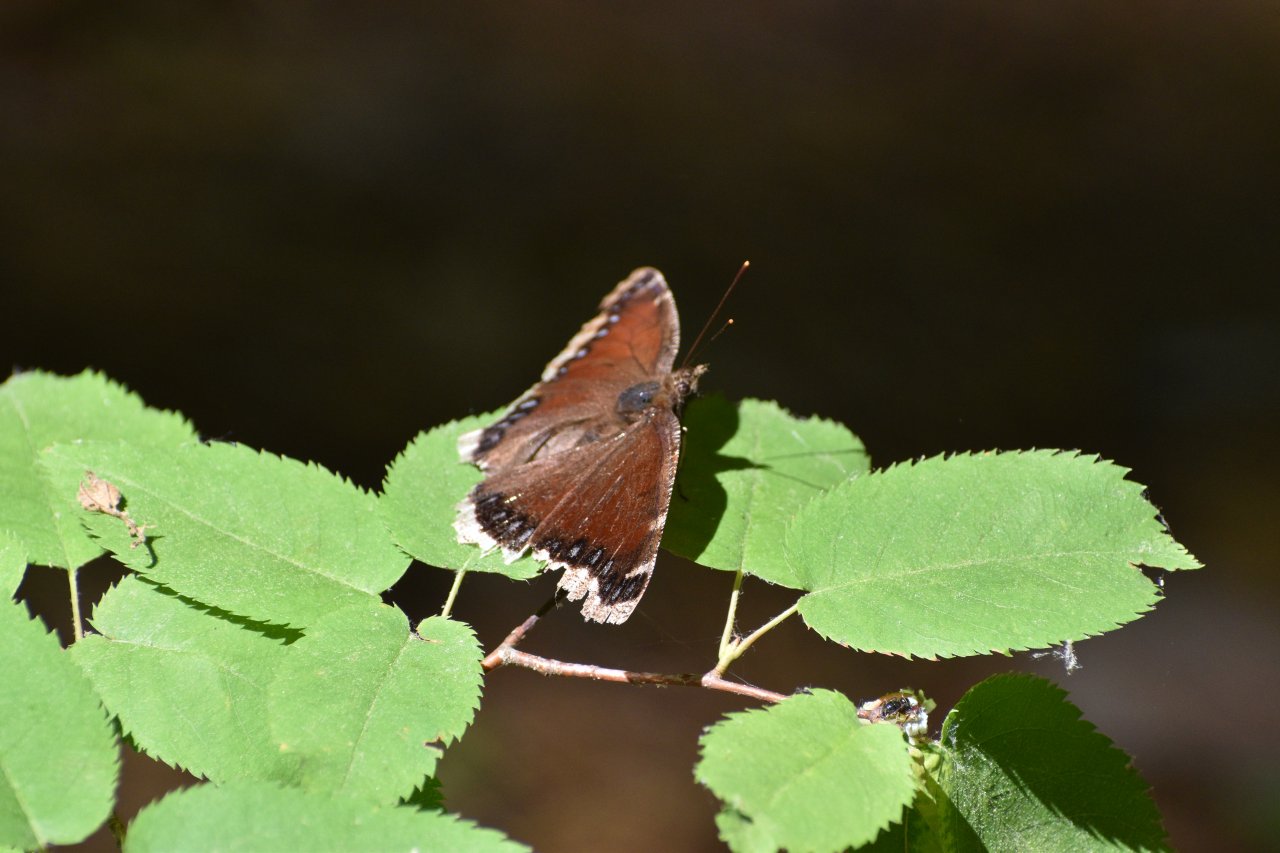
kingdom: Animalia
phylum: Arthropoda
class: Insecta
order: Lepidoptera
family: Nymphalidae
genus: Nymphalis
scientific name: Nymphalis antiopa
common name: Mourning Cloak
